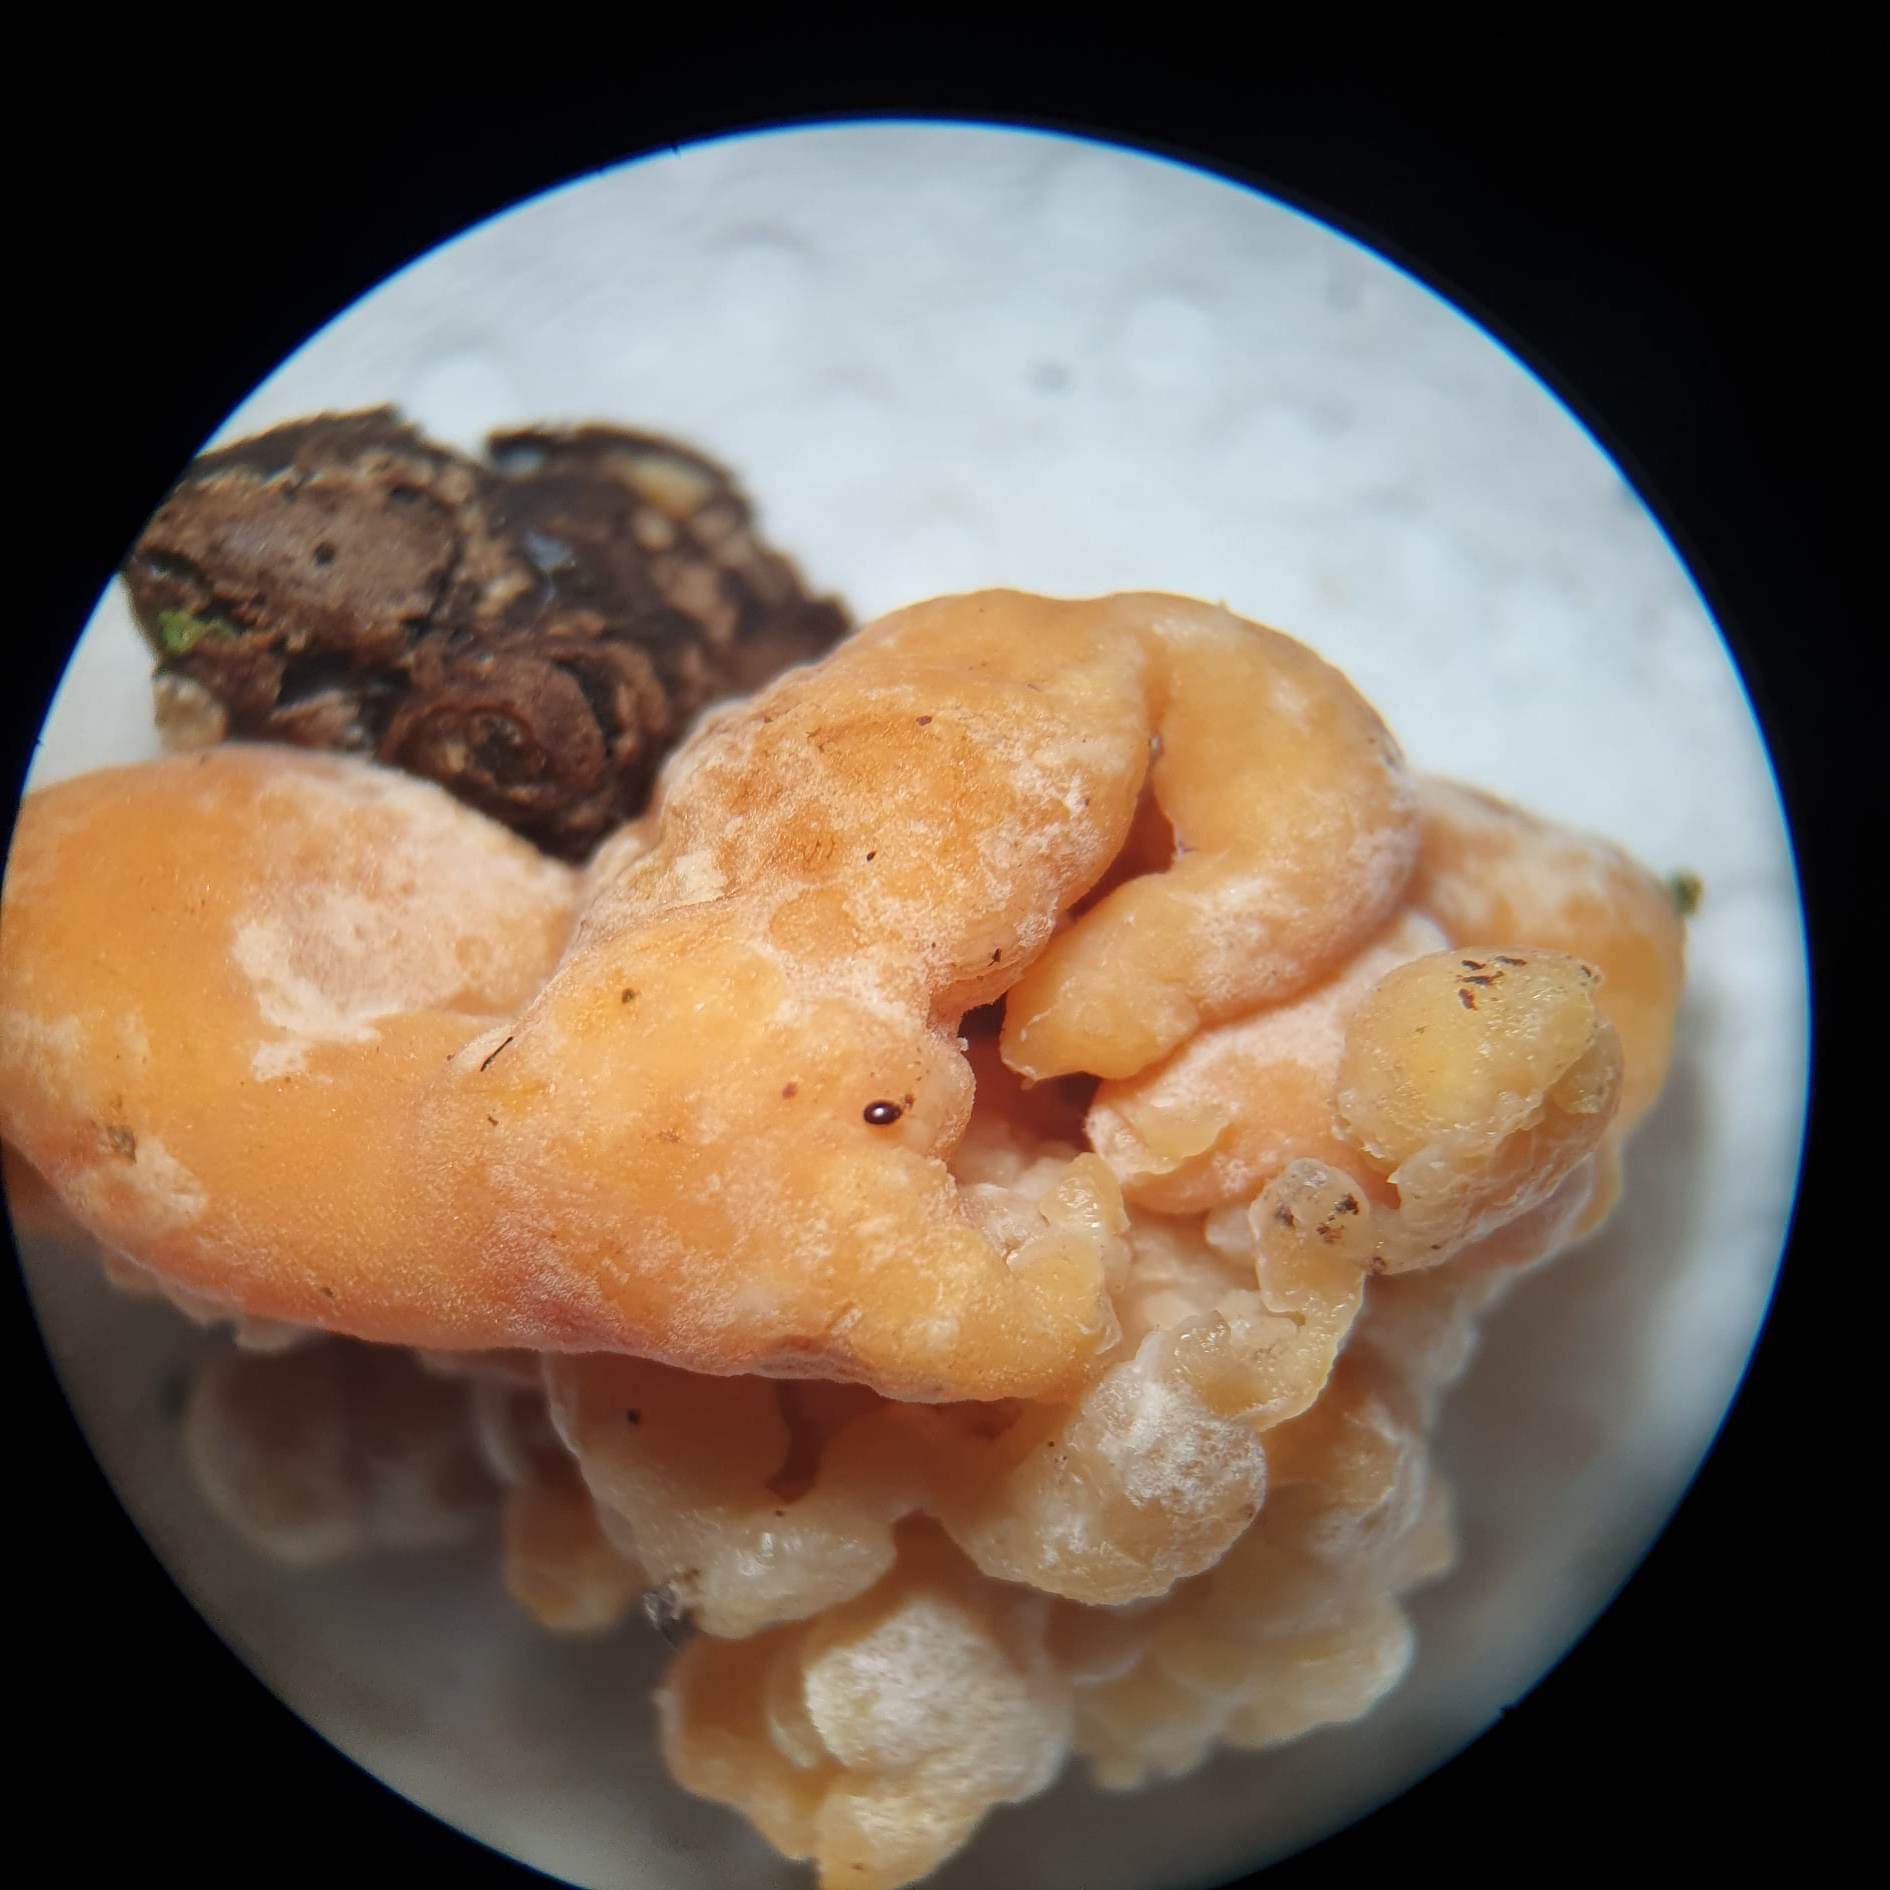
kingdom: Fungi
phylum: Ascomycota
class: Sordariomycetes
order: Xylariales
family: Hypoxylaceae
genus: Nodulisporium
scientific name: Nodulisporium cecidiogenes
